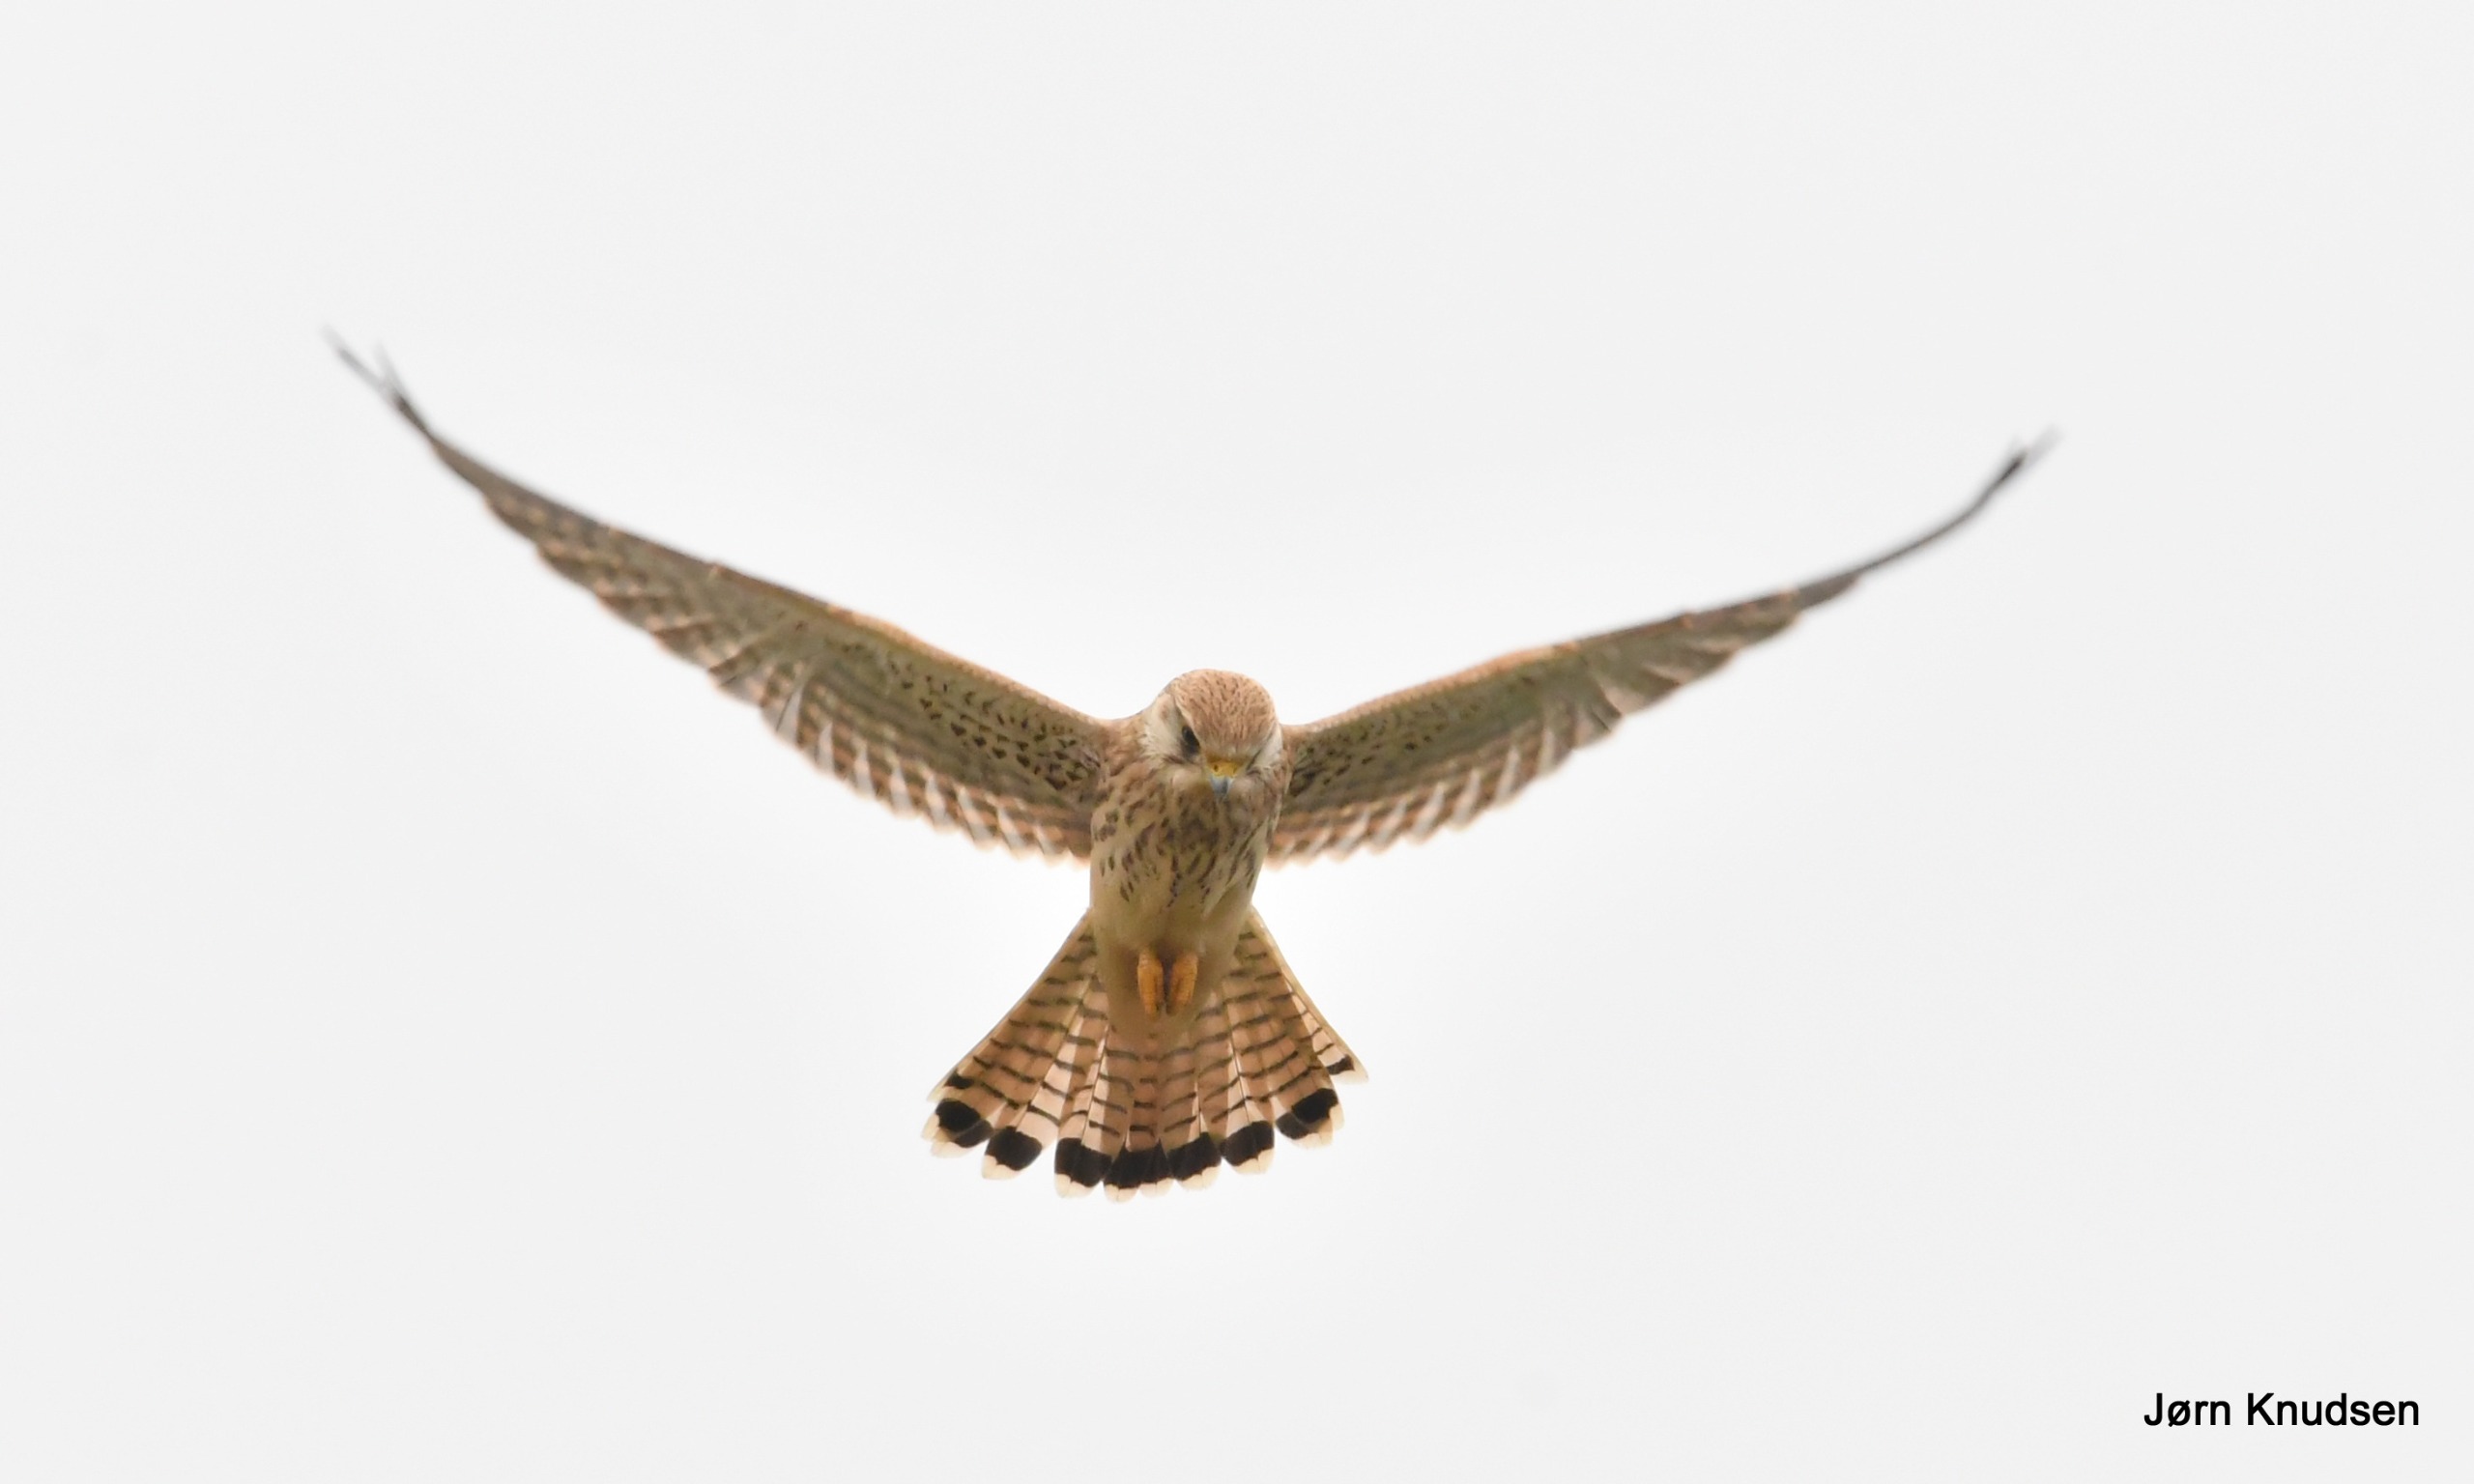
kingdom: Animalia
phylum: Chordata
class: Aves
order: Falconiformes
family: Falconidae
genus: Falco
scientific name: Falco tinnunculus
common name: Tårnfalk
